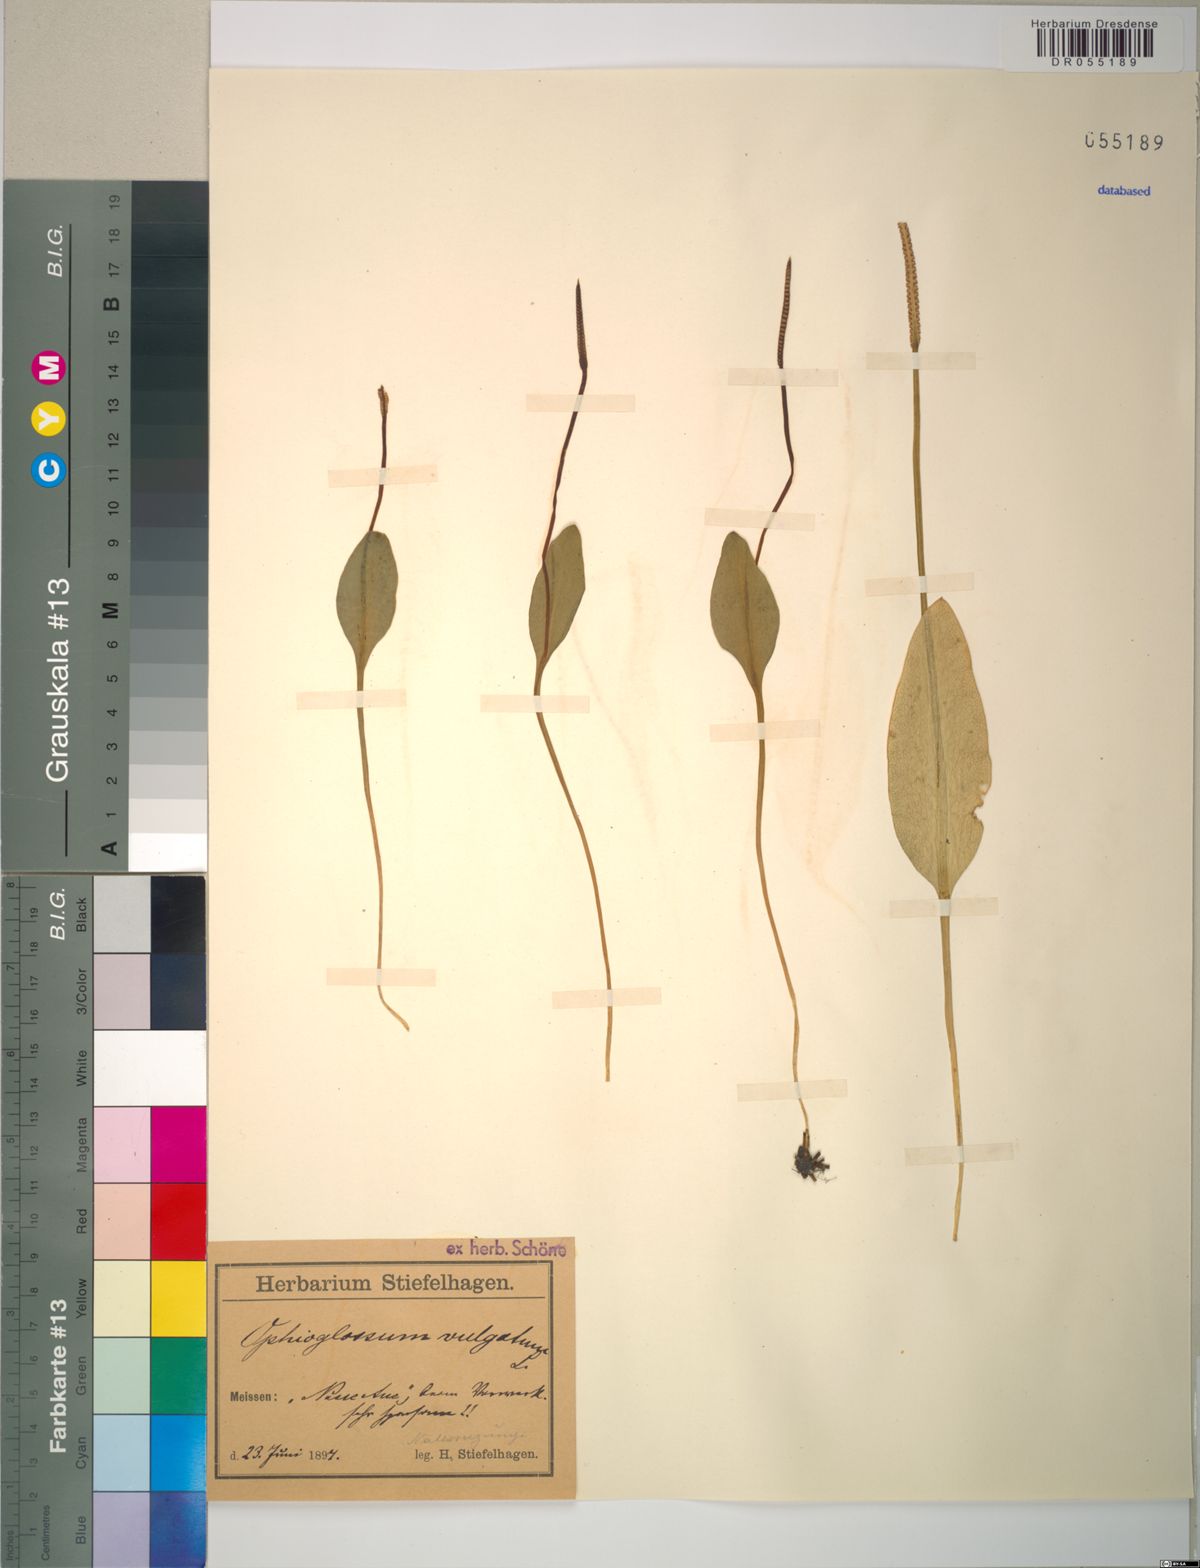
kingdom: Plantae
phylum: Tracheophyta
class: Polypodiopsida
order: Ophioglossales
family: Ophioglossaceae
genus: Ophioglossum
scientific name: Ophioglossum vulgatum
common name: Adder's-tongue
